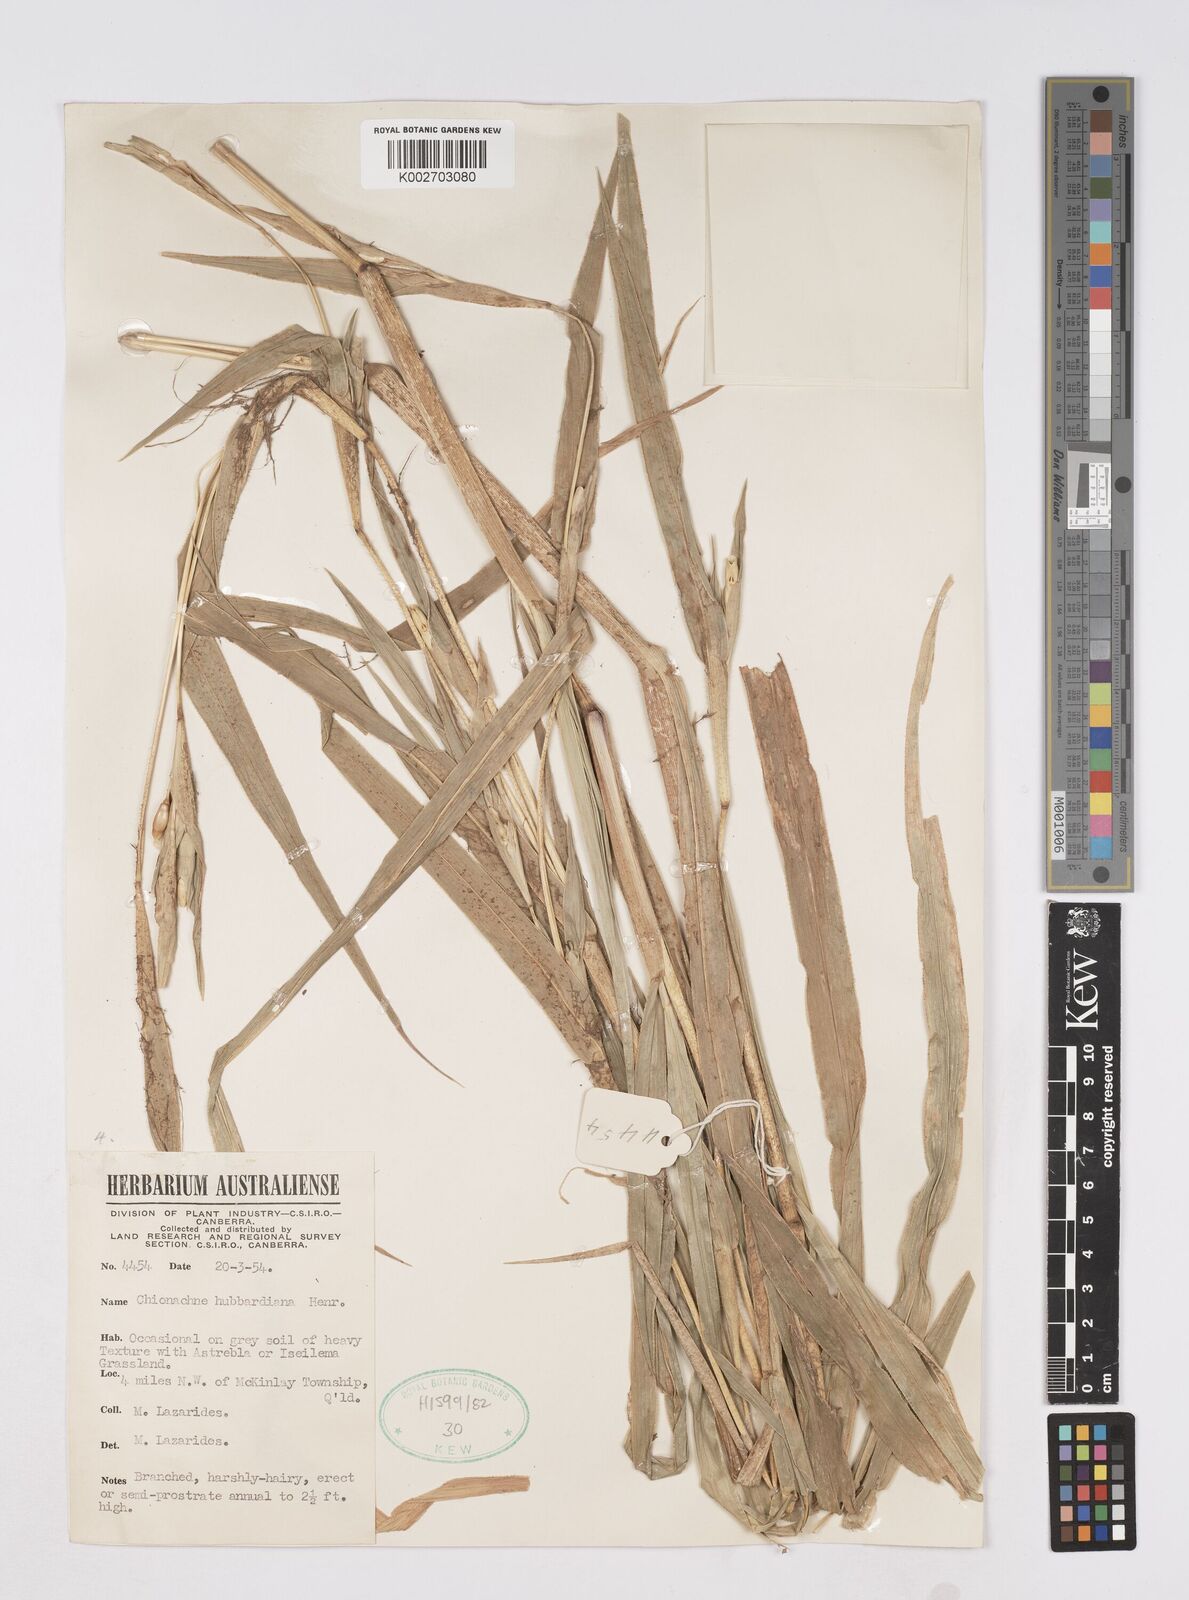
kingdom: Plantae
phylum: Tracheophyta
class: Liliopsida
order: Poales
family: Poaceae
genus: Polytoca
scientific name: Polytoca hubbardiana
